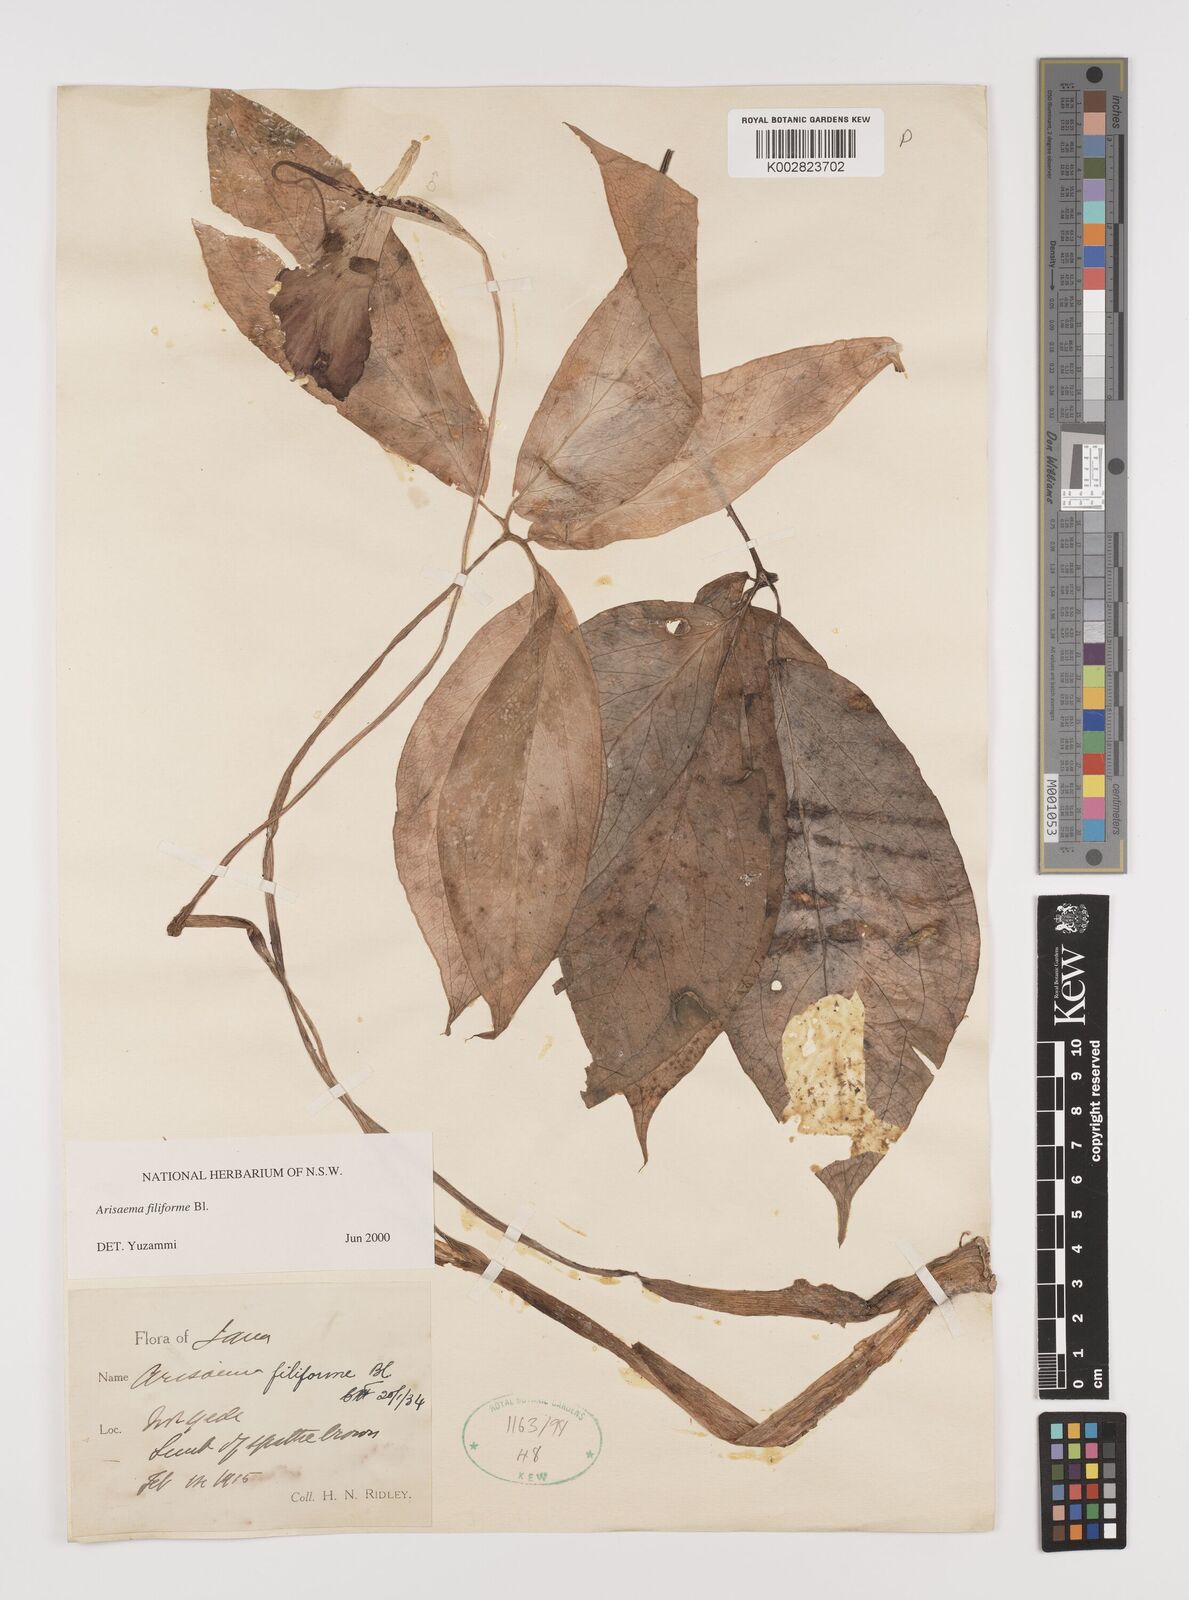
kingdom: Plantae
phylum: Tracheophyta
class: Liliopsida
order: Alismatales
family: Araceae
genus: Arisaema
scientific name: Arisaema filiforme
